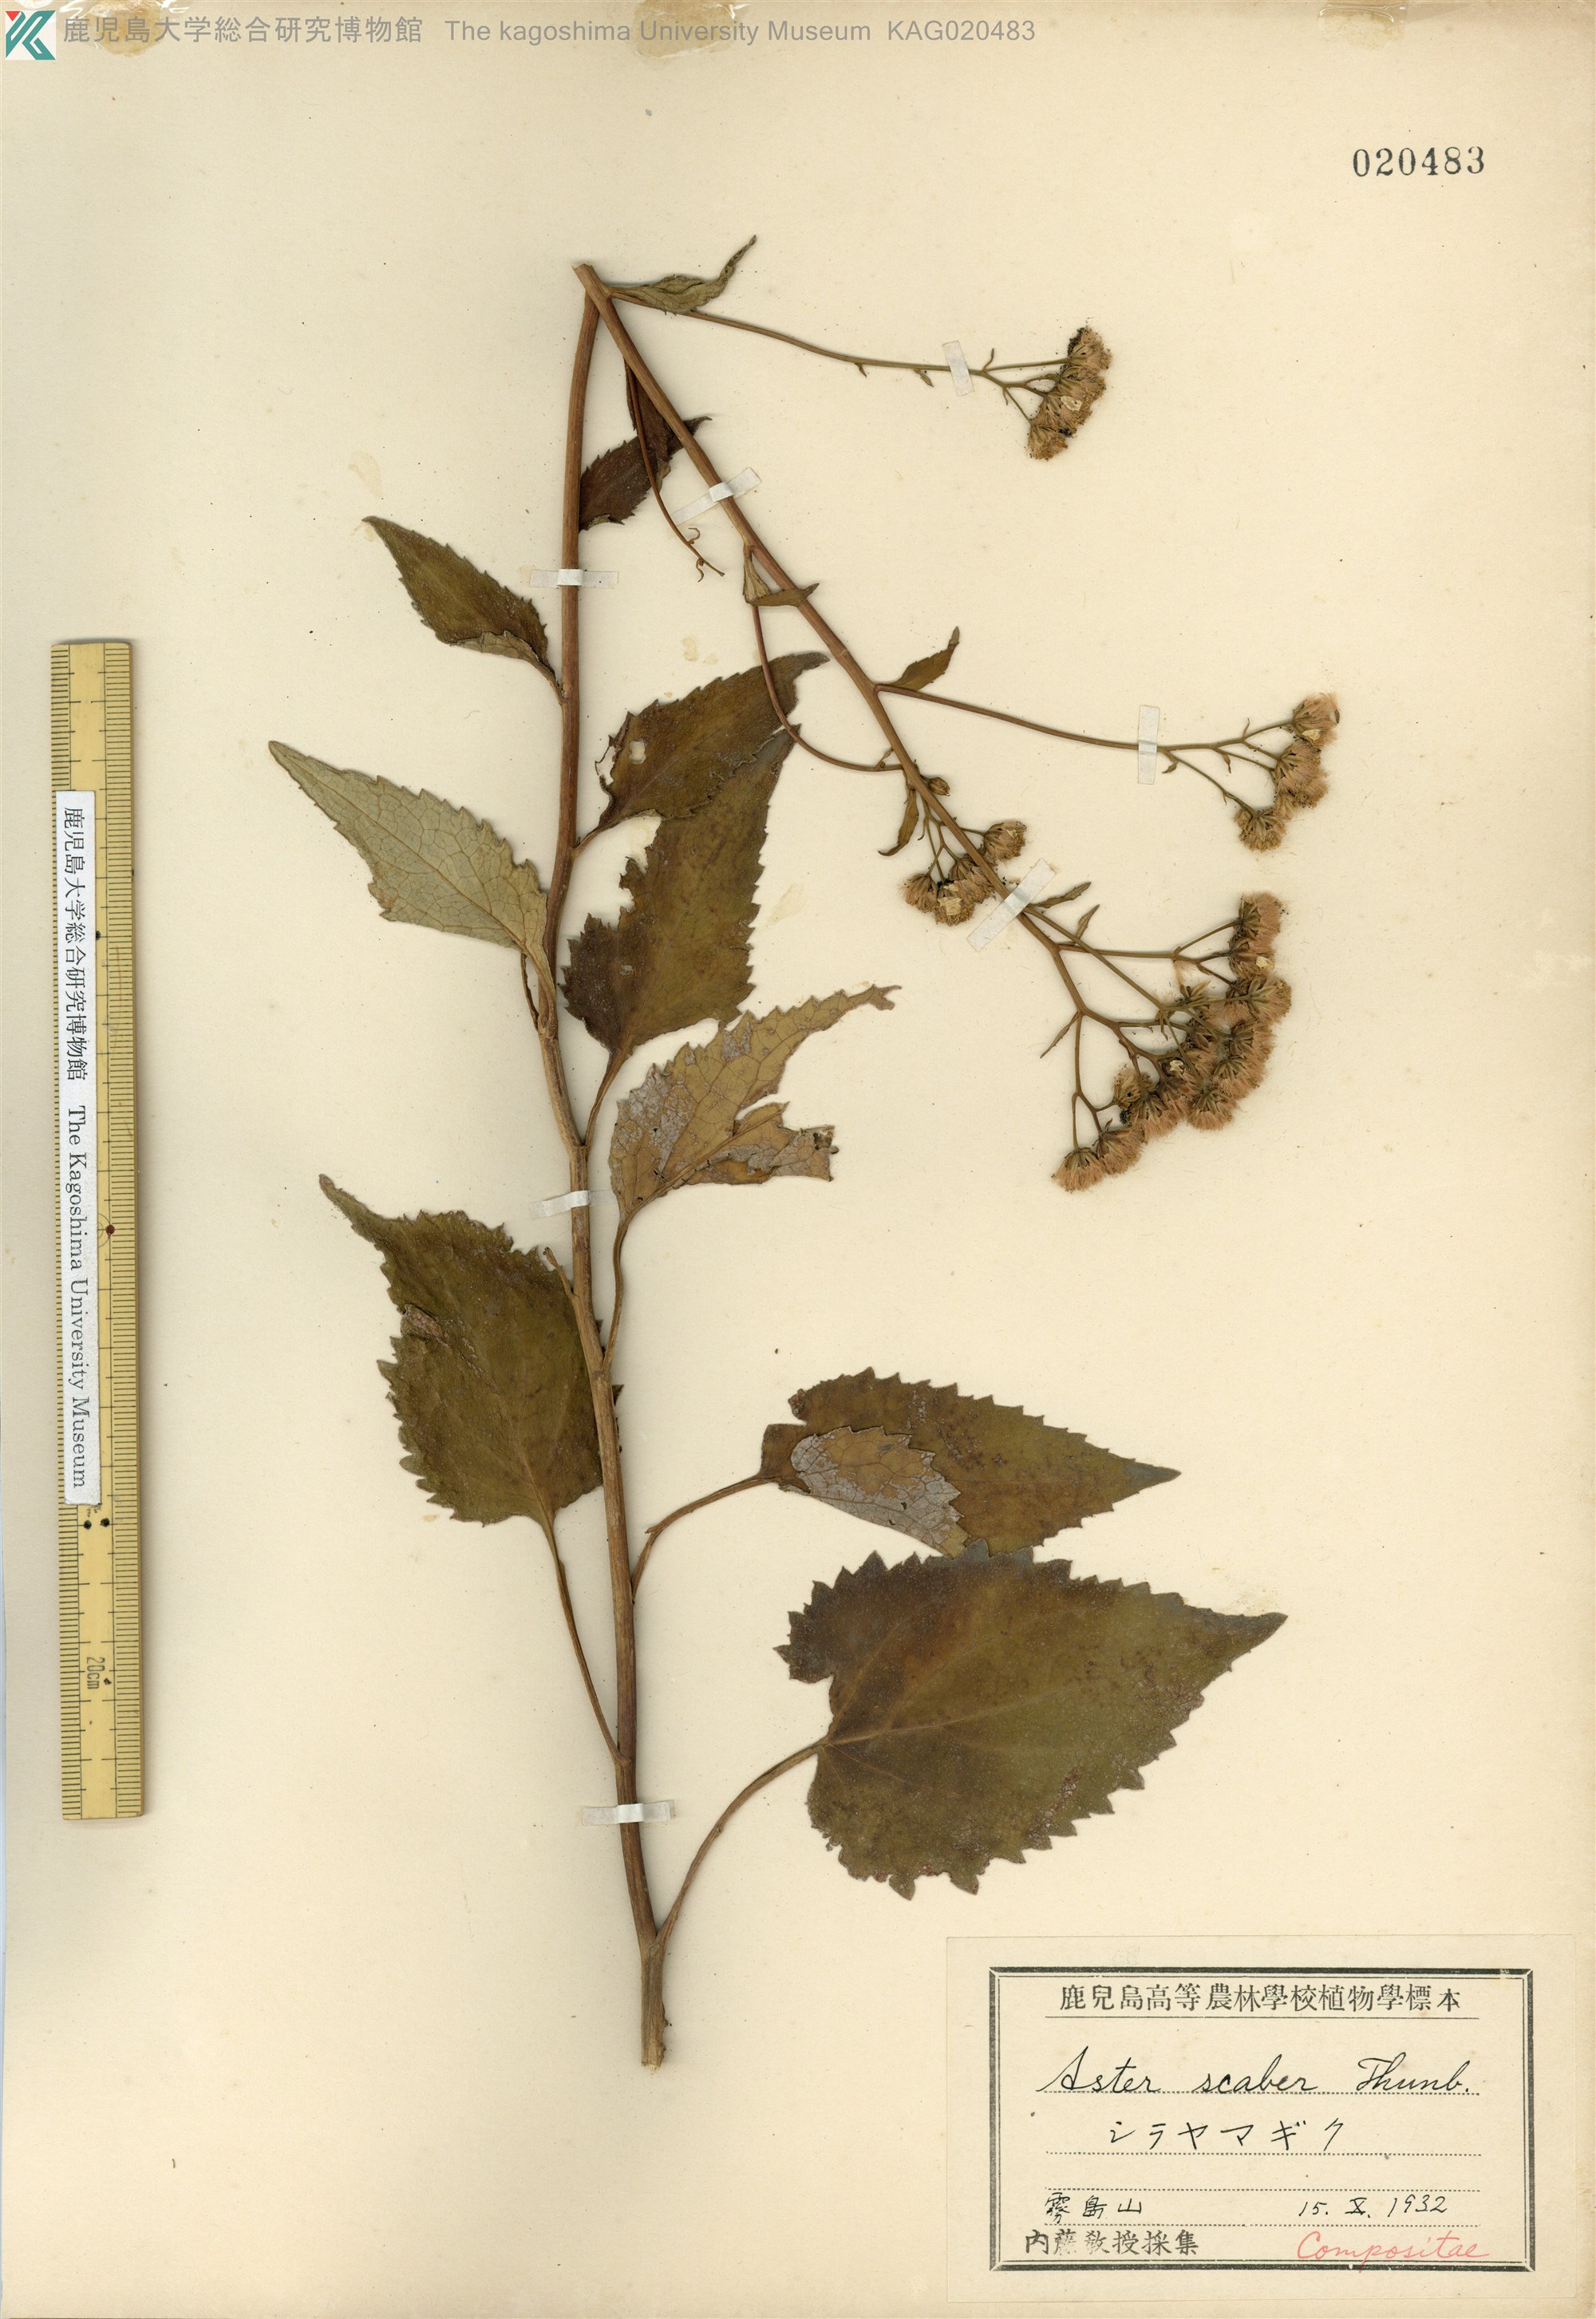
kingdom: Plantae
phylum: Tracheophyta
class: Magnoliopsida
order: Asterales
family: Asteraceae
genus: Cardiagyris
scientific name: Cardiagyris scabra
